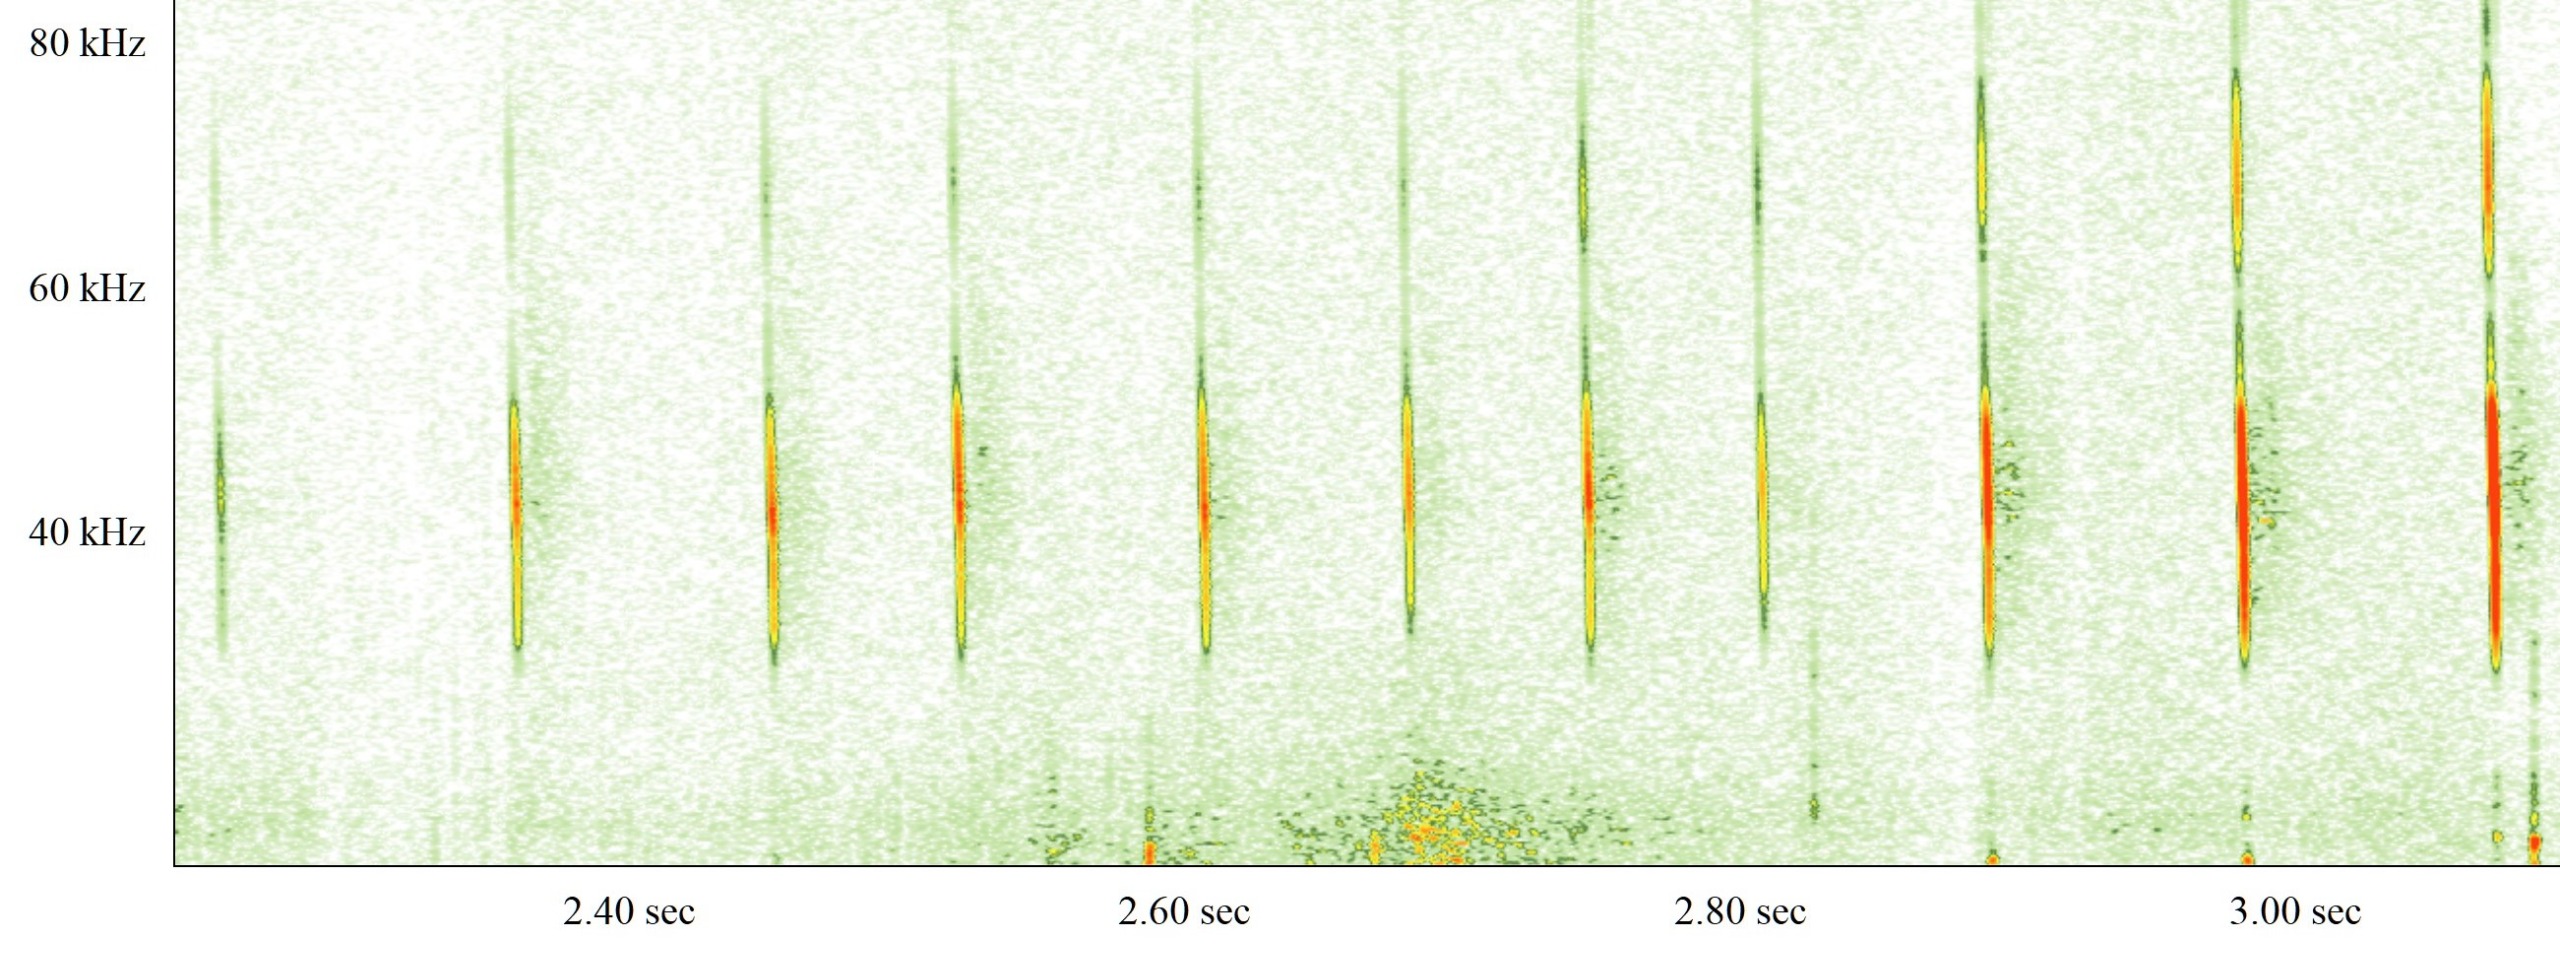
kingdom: Animalia
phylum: Chordata
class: Mammalia
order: Chiroptera
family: Vespertilionidae
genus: Myotis
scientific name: Myotis daubentonii
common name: Vandflagermus
